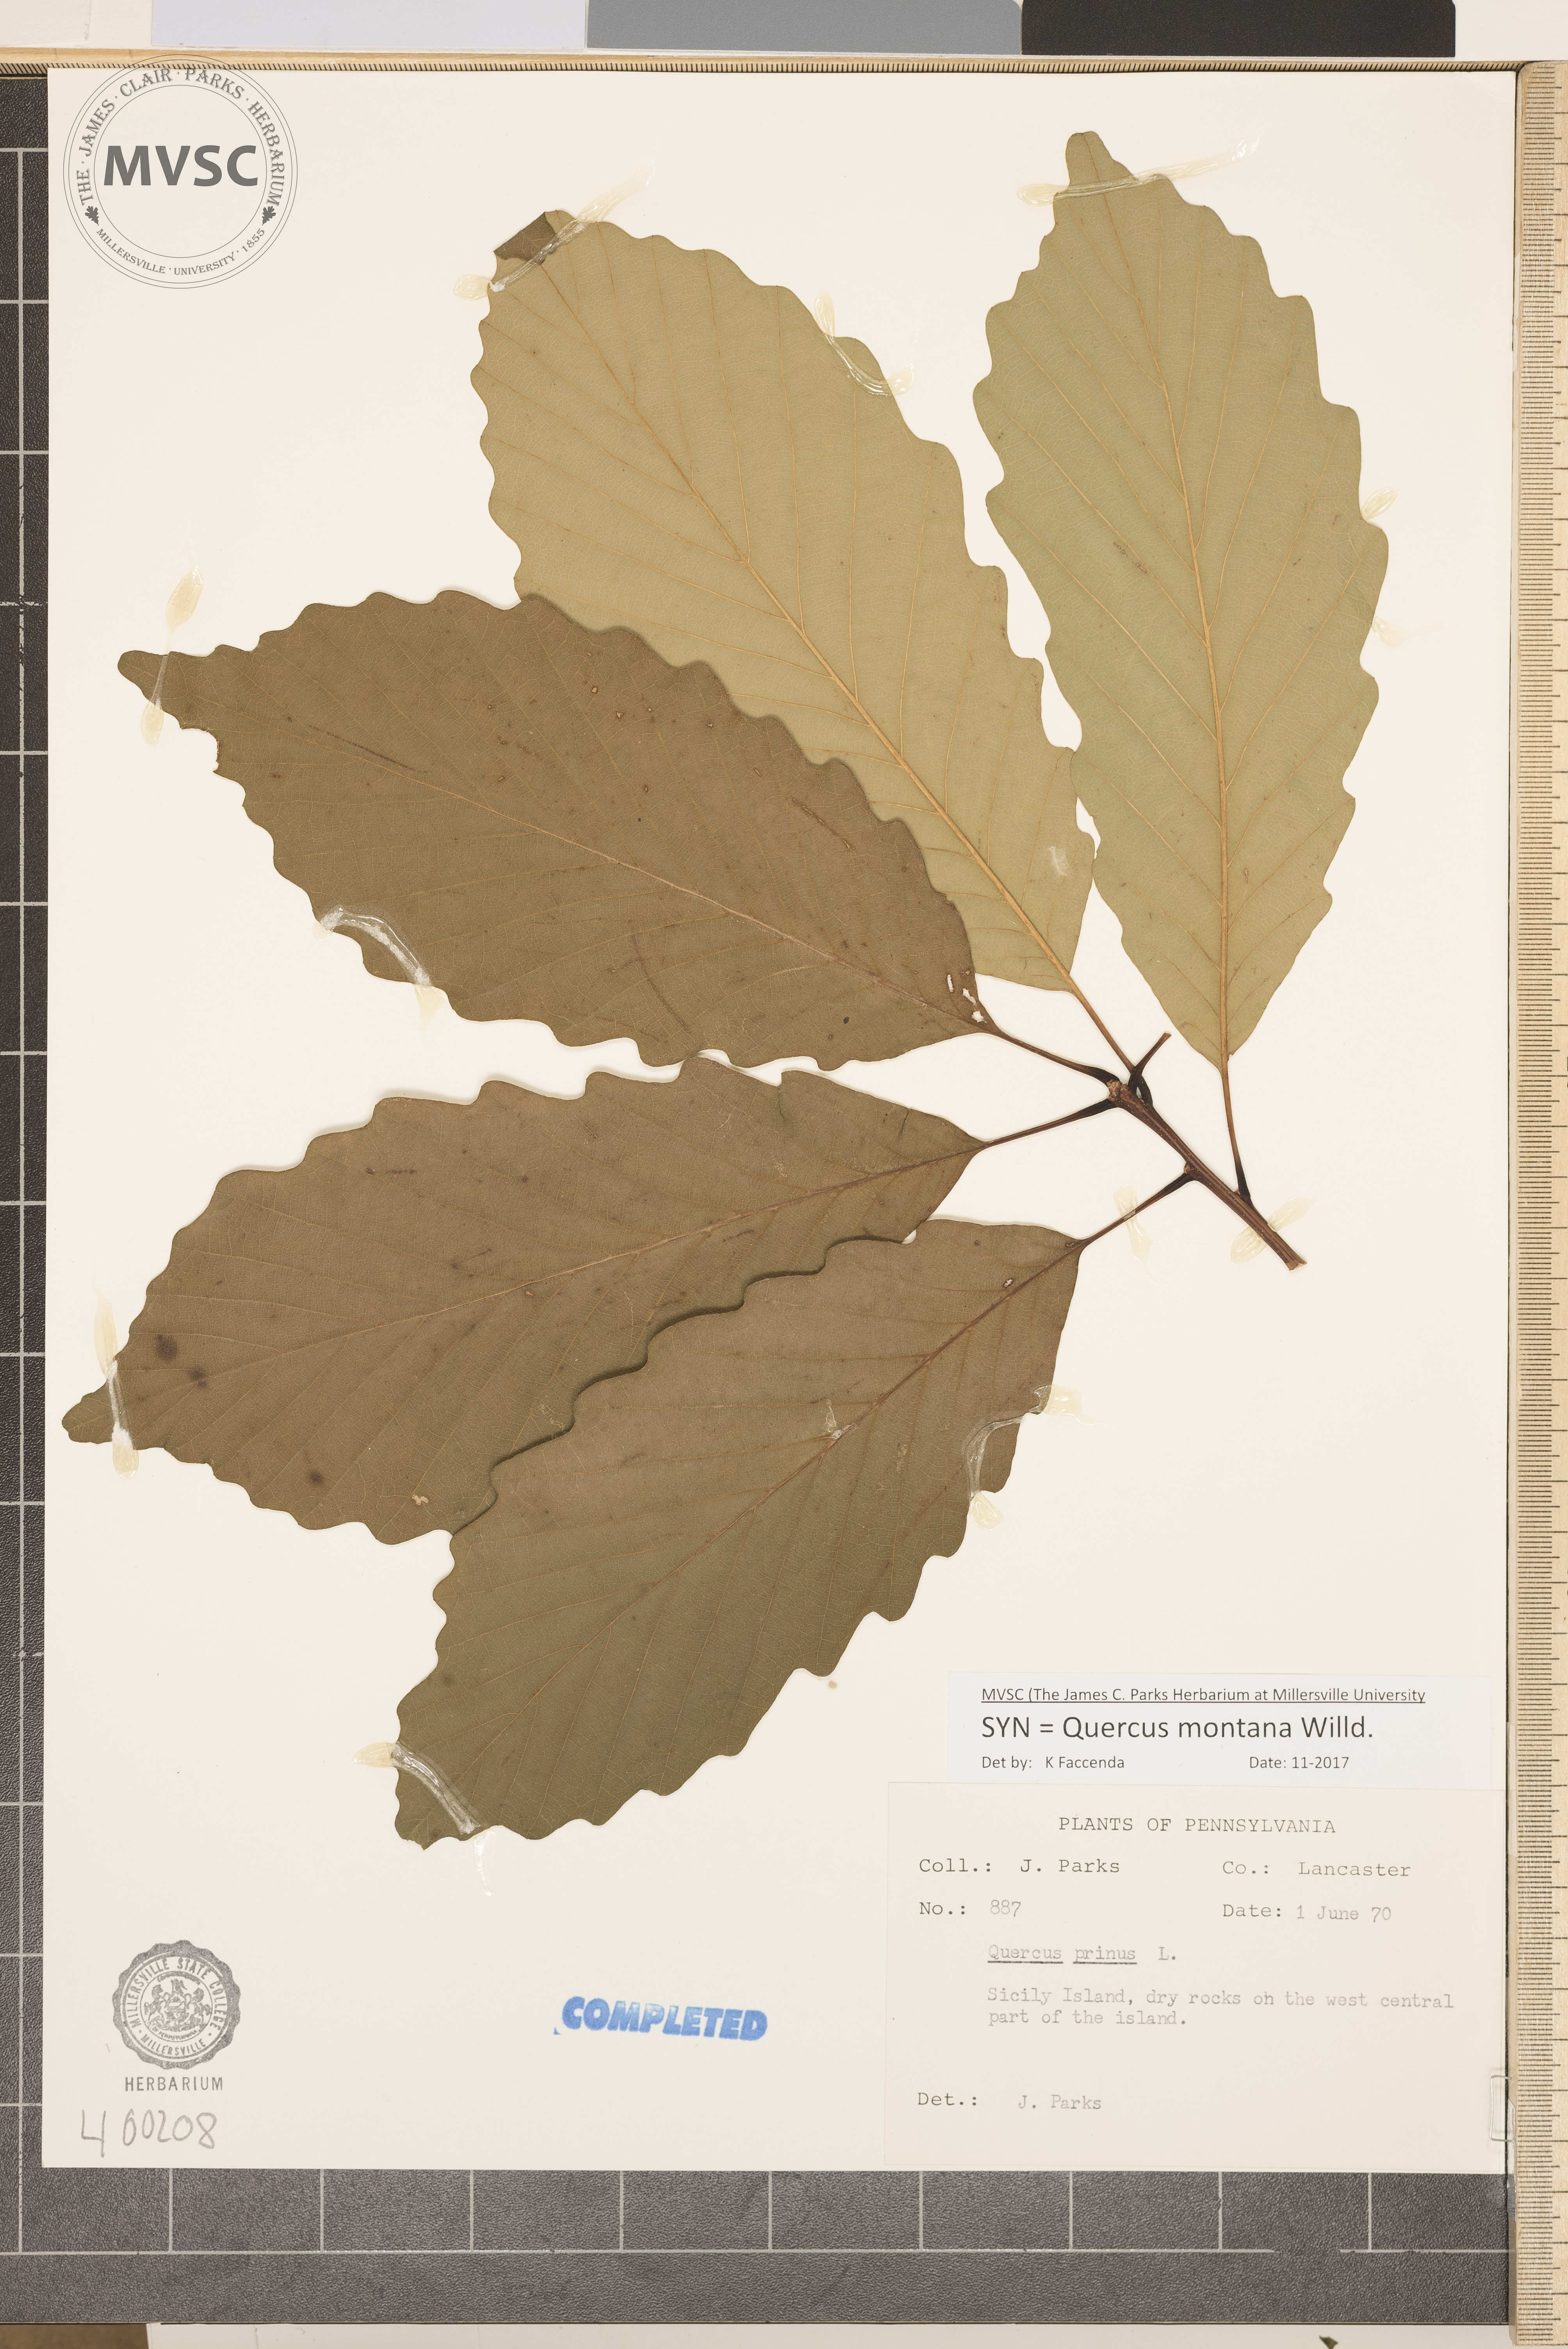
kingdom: Plantae
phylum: Tracheophyta
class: Magnoliopsida
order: Fagales
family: Fagaceae
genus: Quercus
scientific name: Quercus montana
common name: chestnut oak
